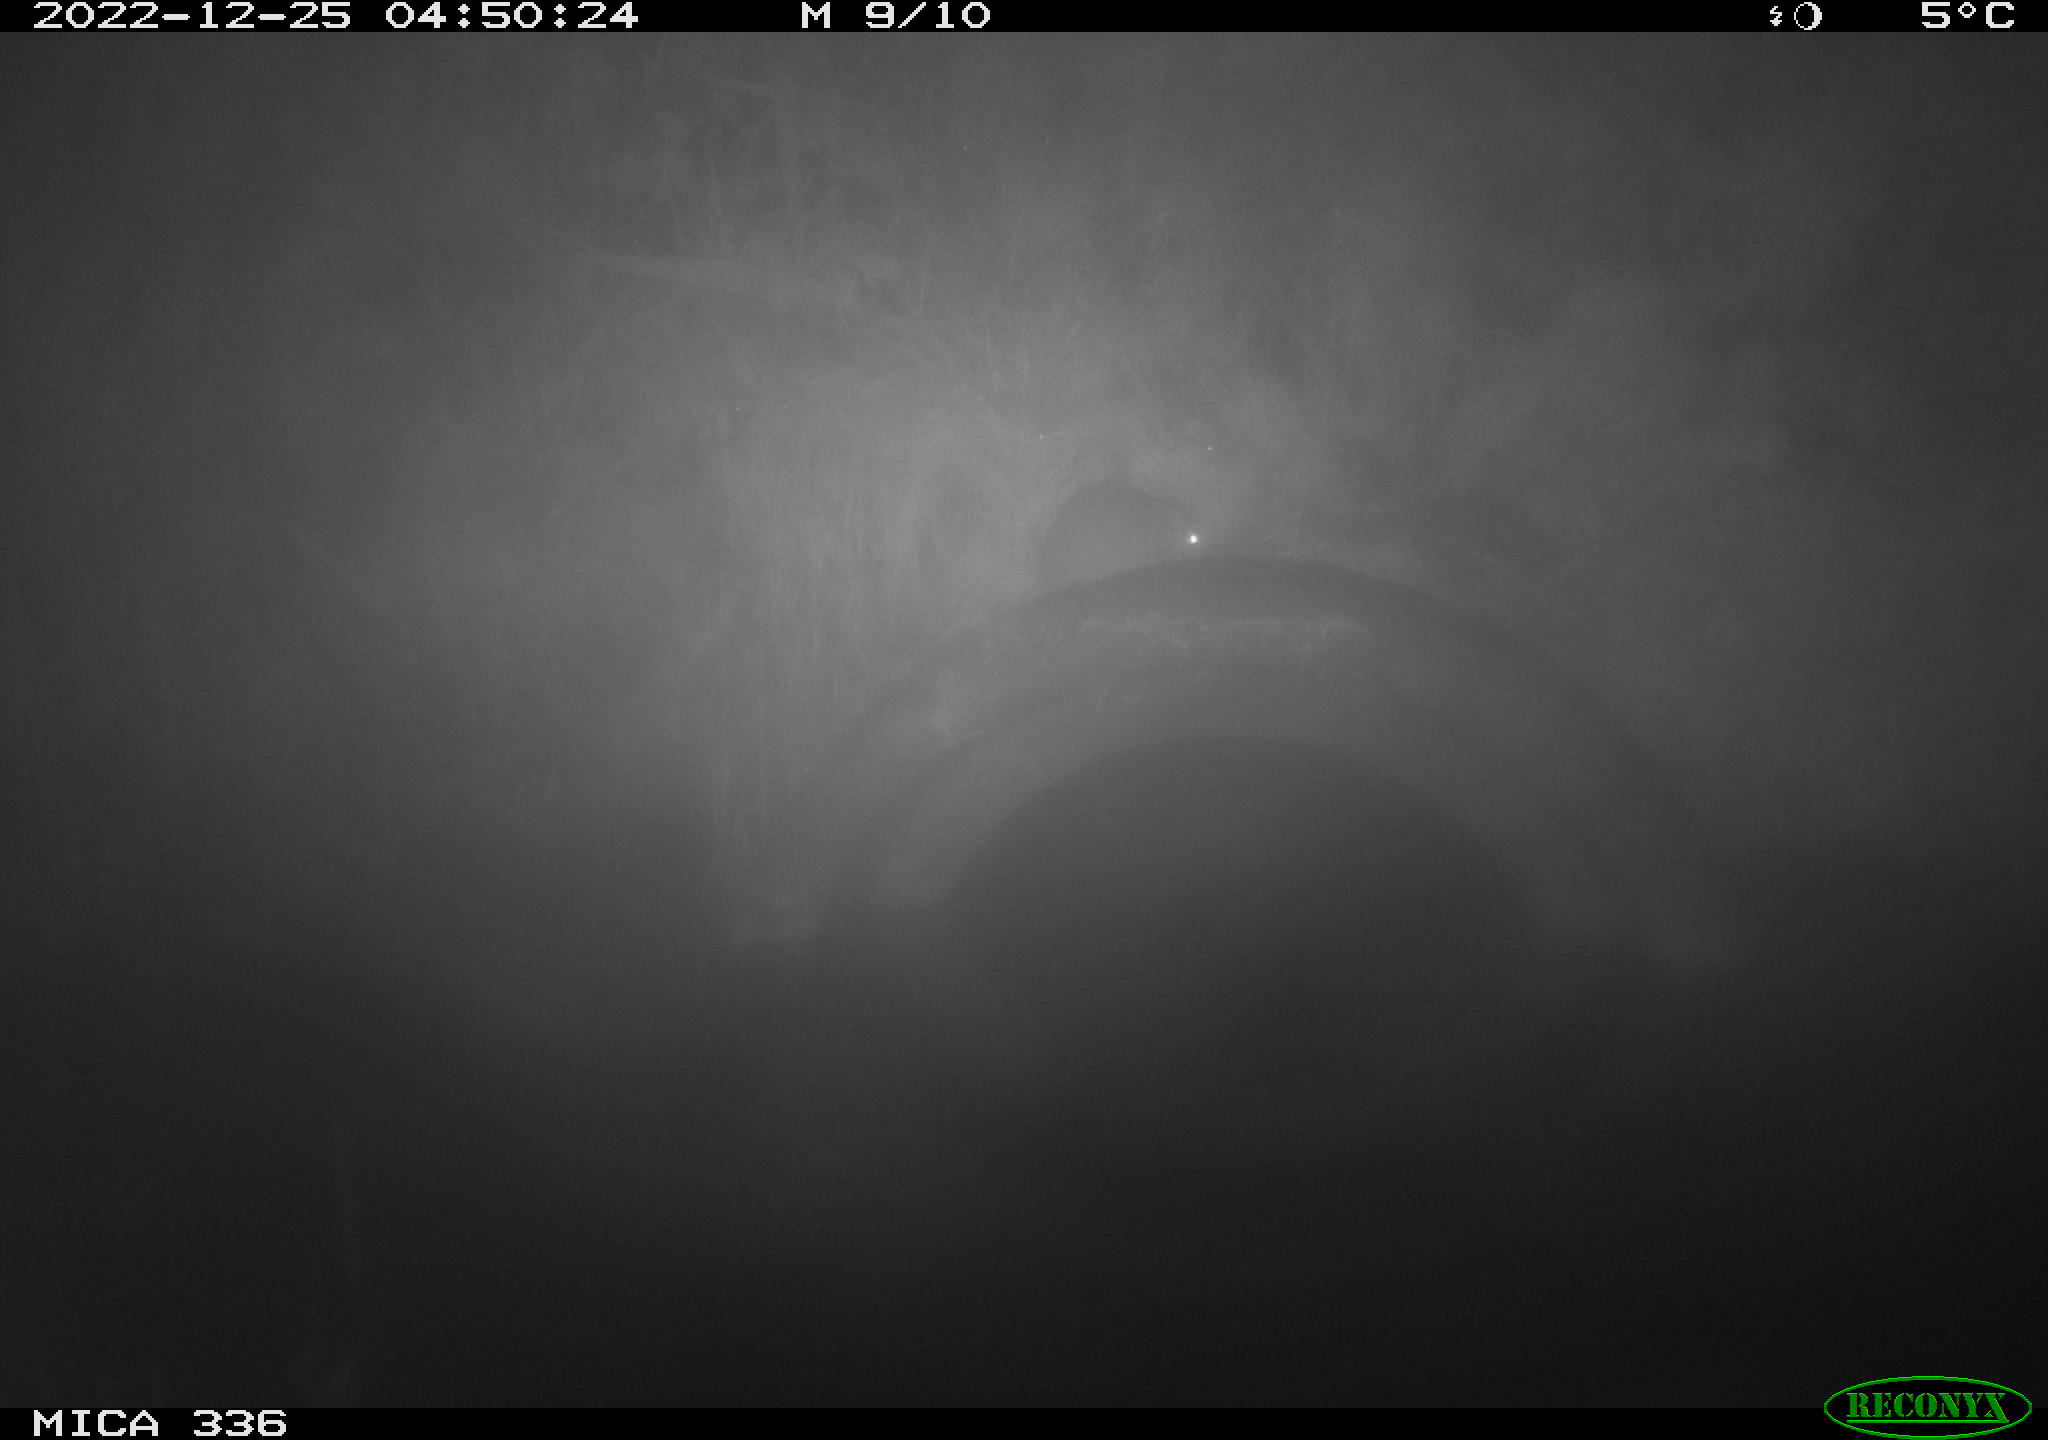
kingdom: Animalia
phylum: Chordata
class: Mammalia
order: Rodentia
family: Muridae
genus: Rattus
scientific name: Rattus norvegicus
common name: Brown rat
